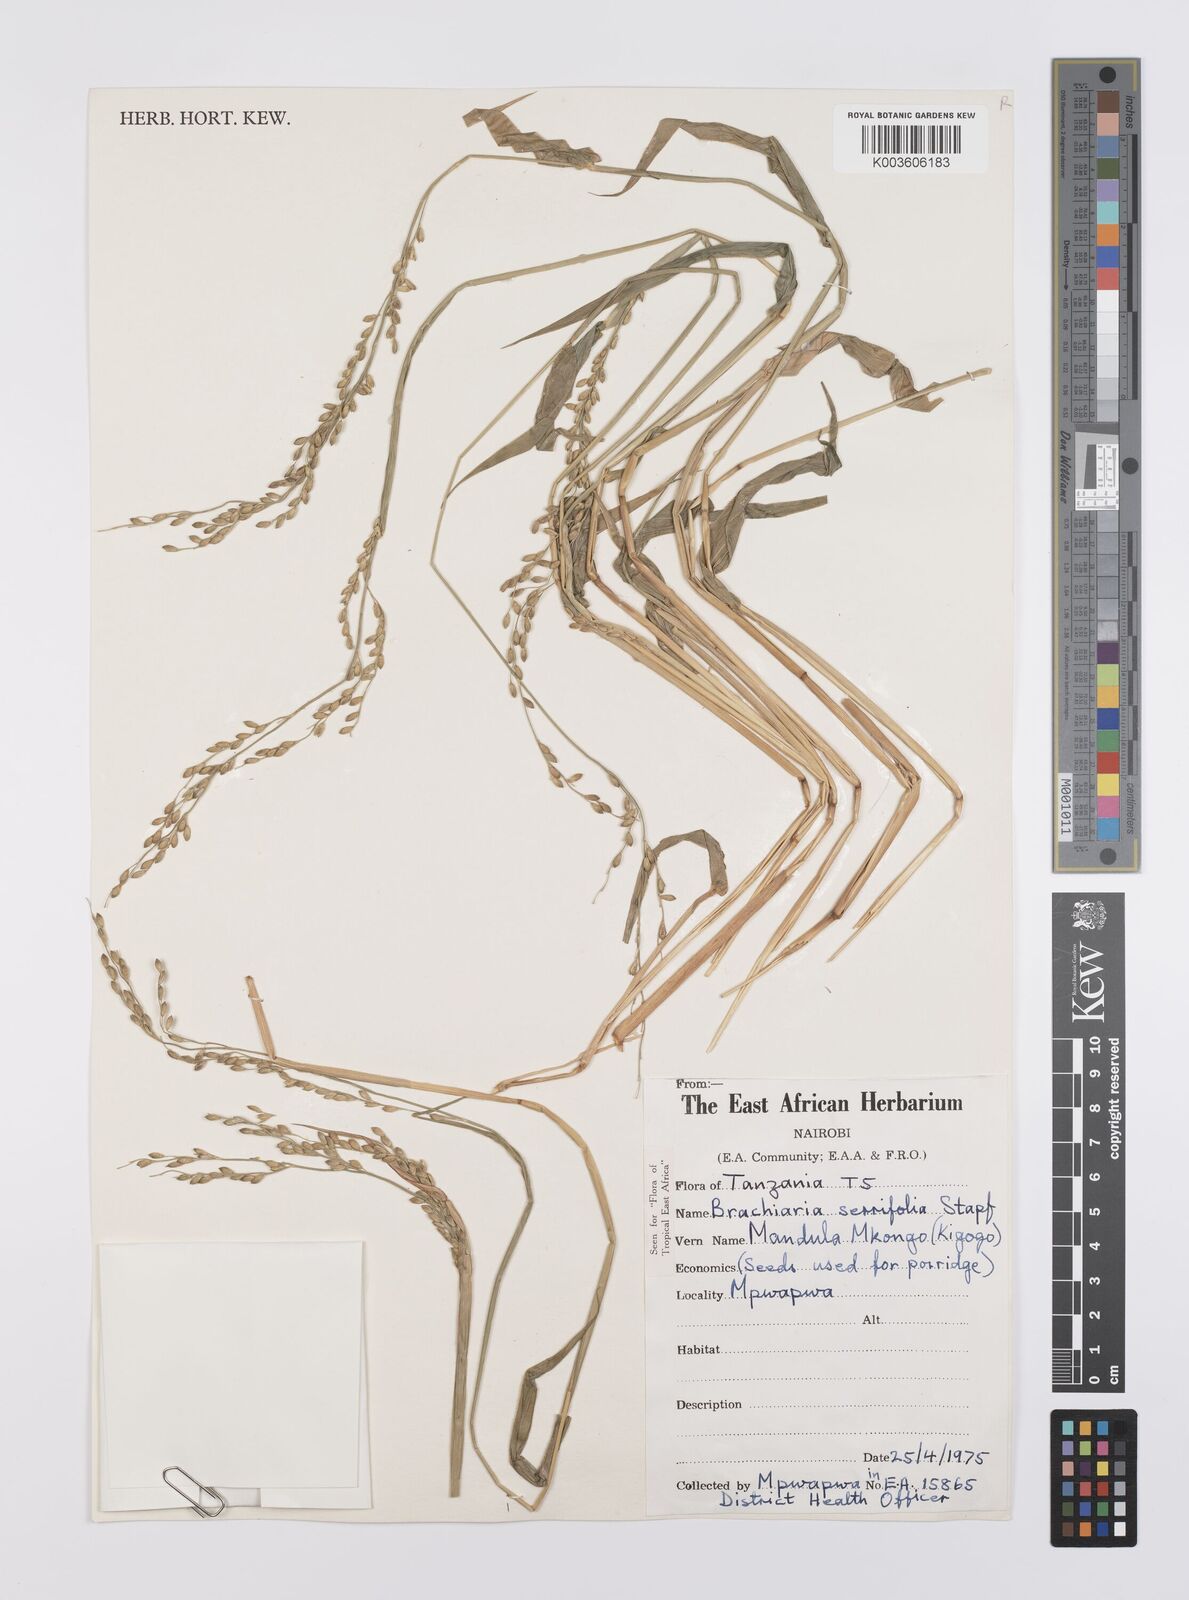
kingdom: Plantae
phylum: Tracheophyta
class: Liliopsida
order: Poales
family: Poaceae
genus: Urochloa
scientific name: Urochloa serrifolia
